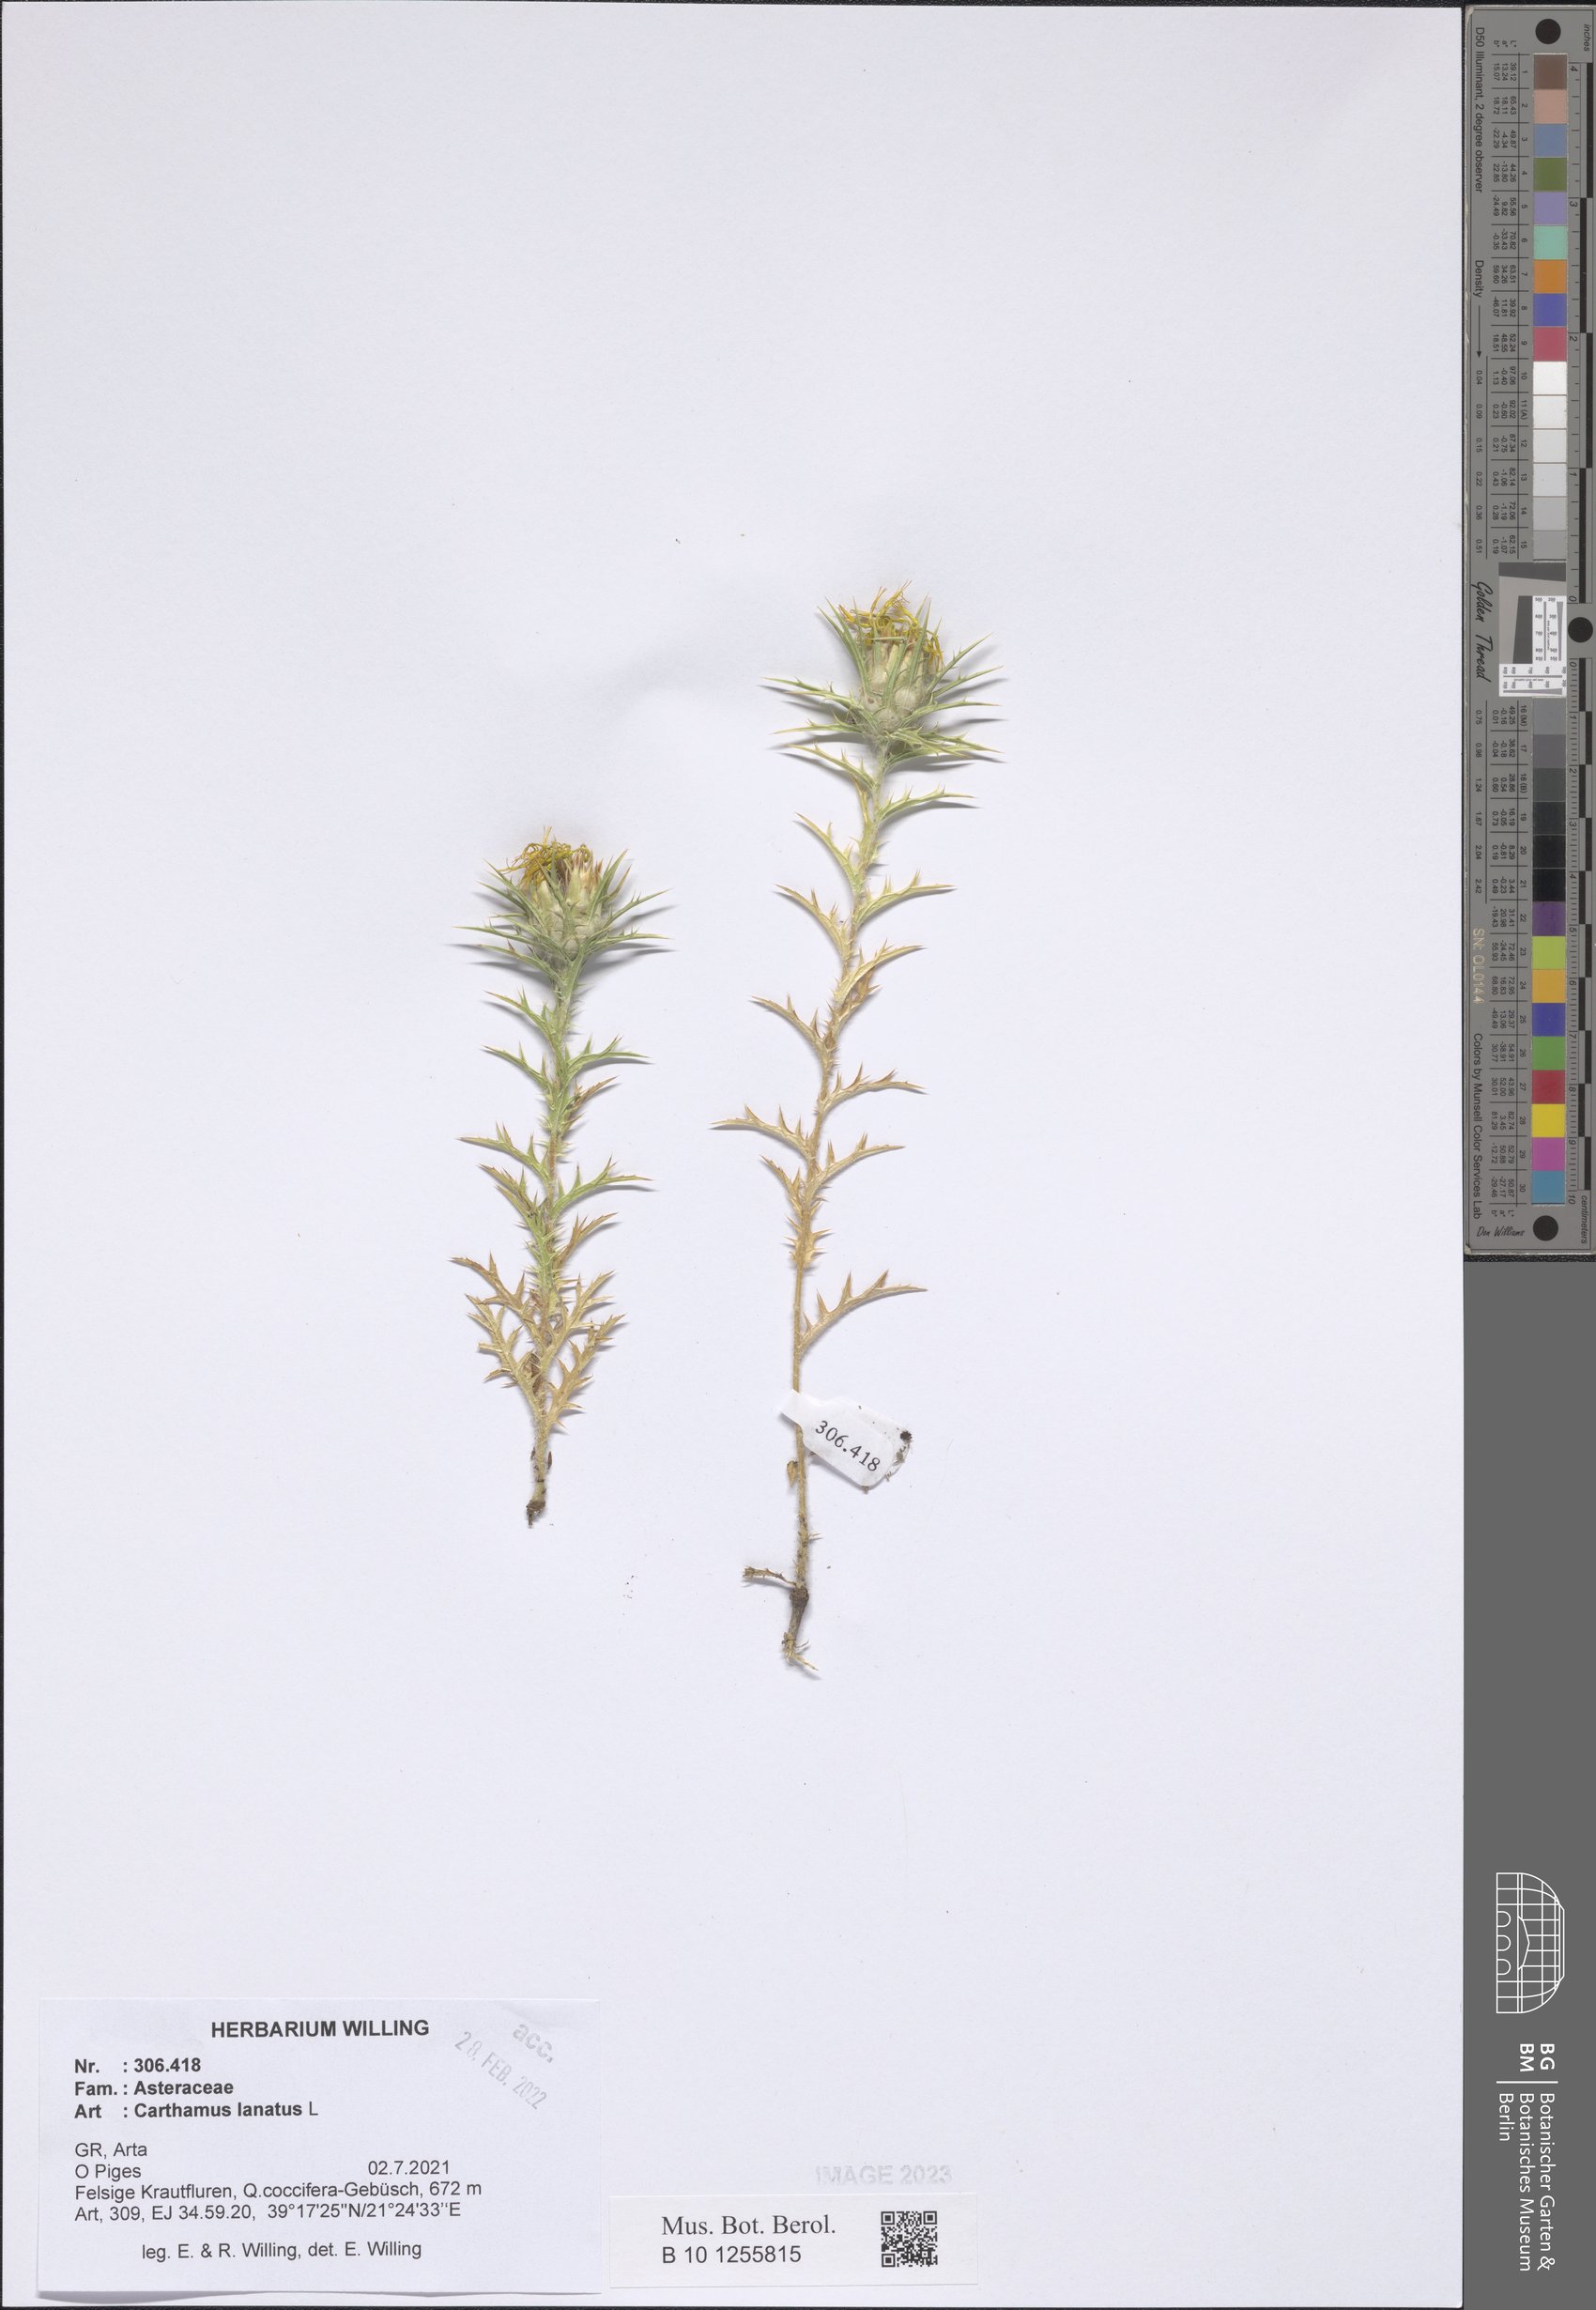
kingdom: Plantae
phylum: Tracheophyta
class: Magnoliopsida
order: Asterales
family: Asteraceae
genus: Carthamus
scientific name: Carthamus lanatus
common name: Downy safflower
